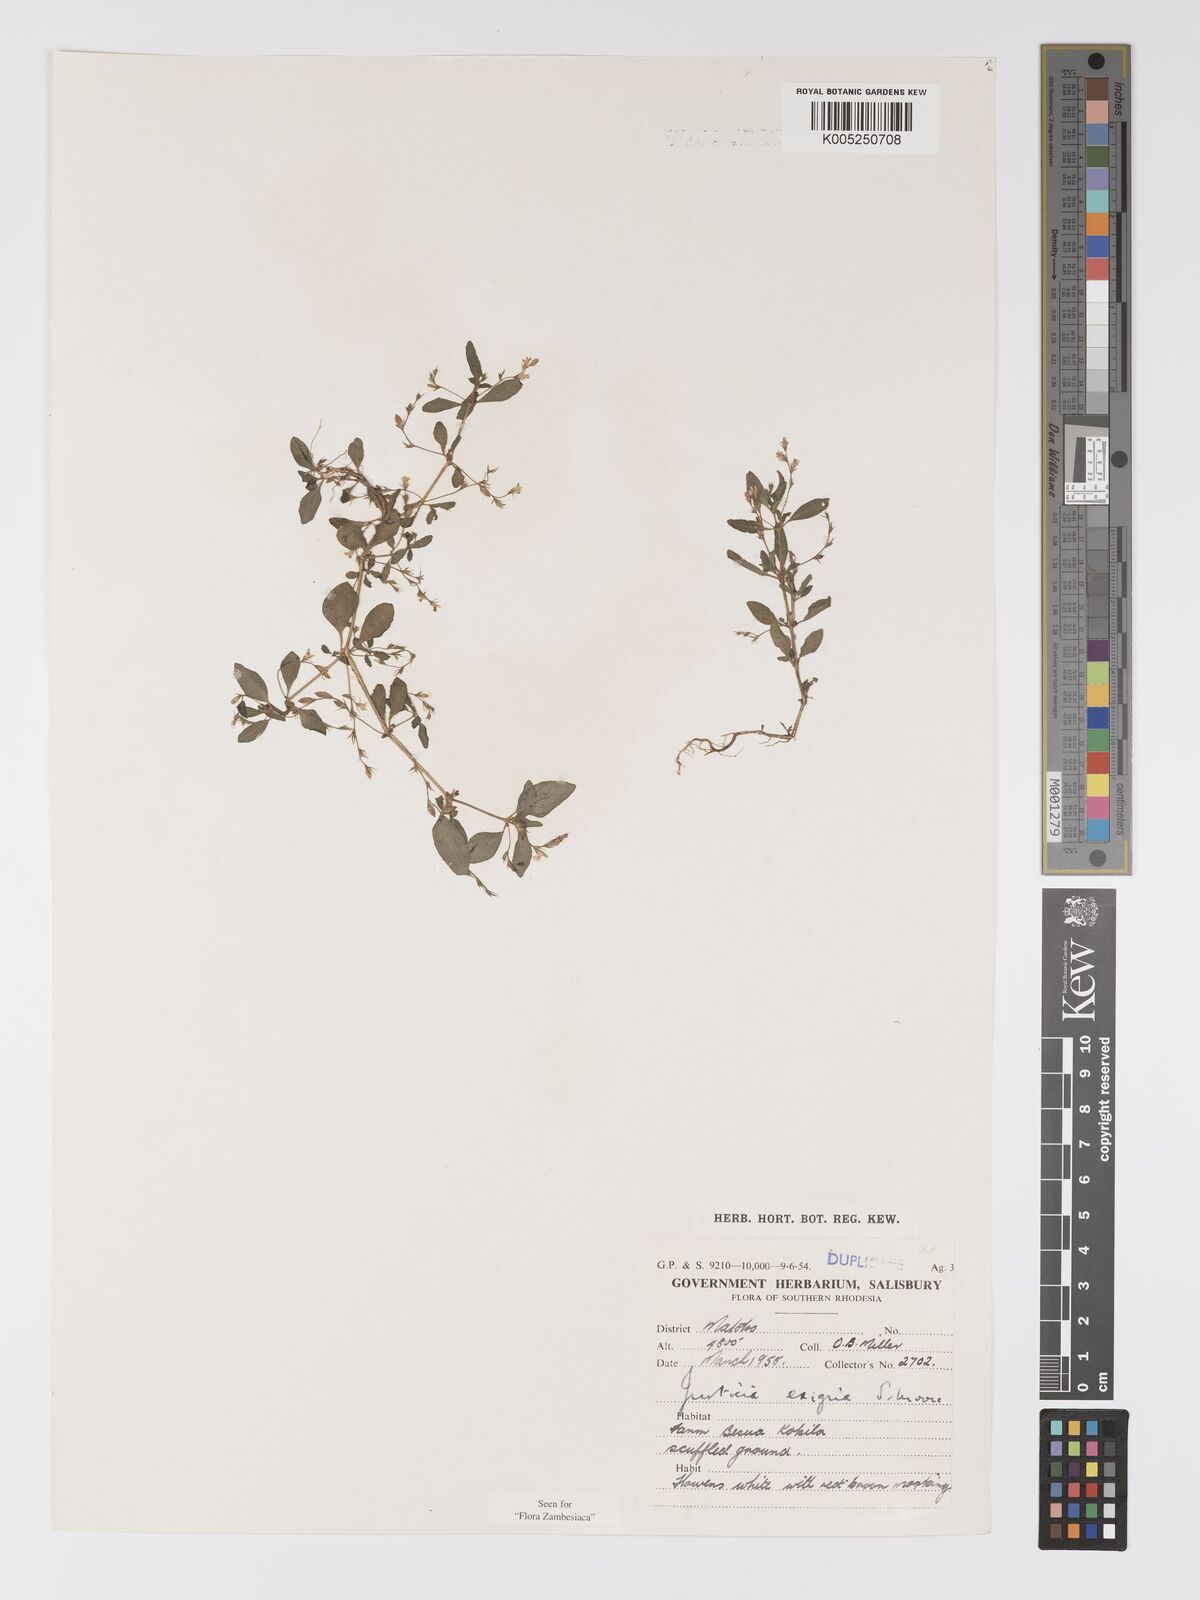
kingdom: Plantae
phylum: Tracheophyta
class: Magnoliopsida
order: Lamiales
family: Acanthaceae
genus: Justicia
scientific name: Justicia exigua
